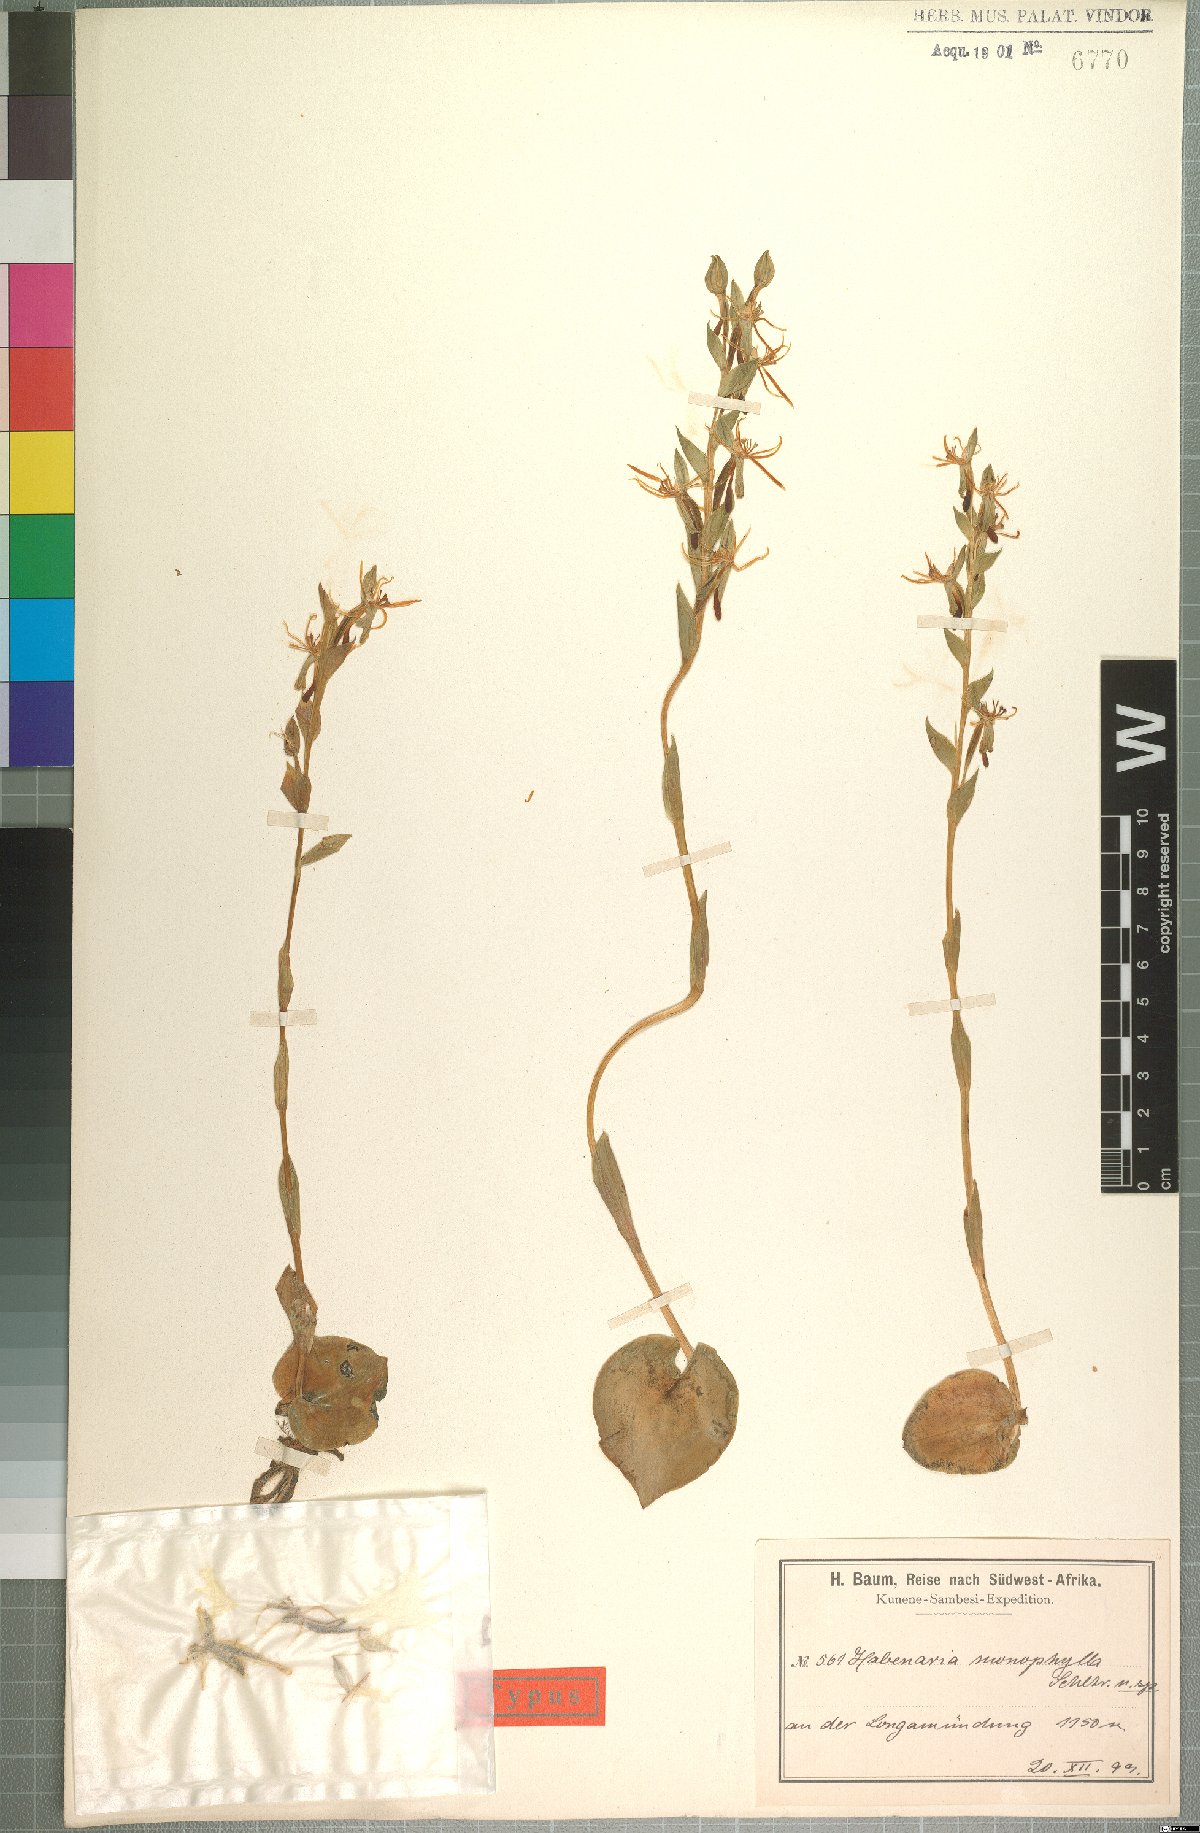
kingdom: Plantae
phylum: Tracheophyta
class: Liliopsida
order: Asparagales
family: Orchidaceae
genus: Habenaria
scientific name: Habenaria verdickii
